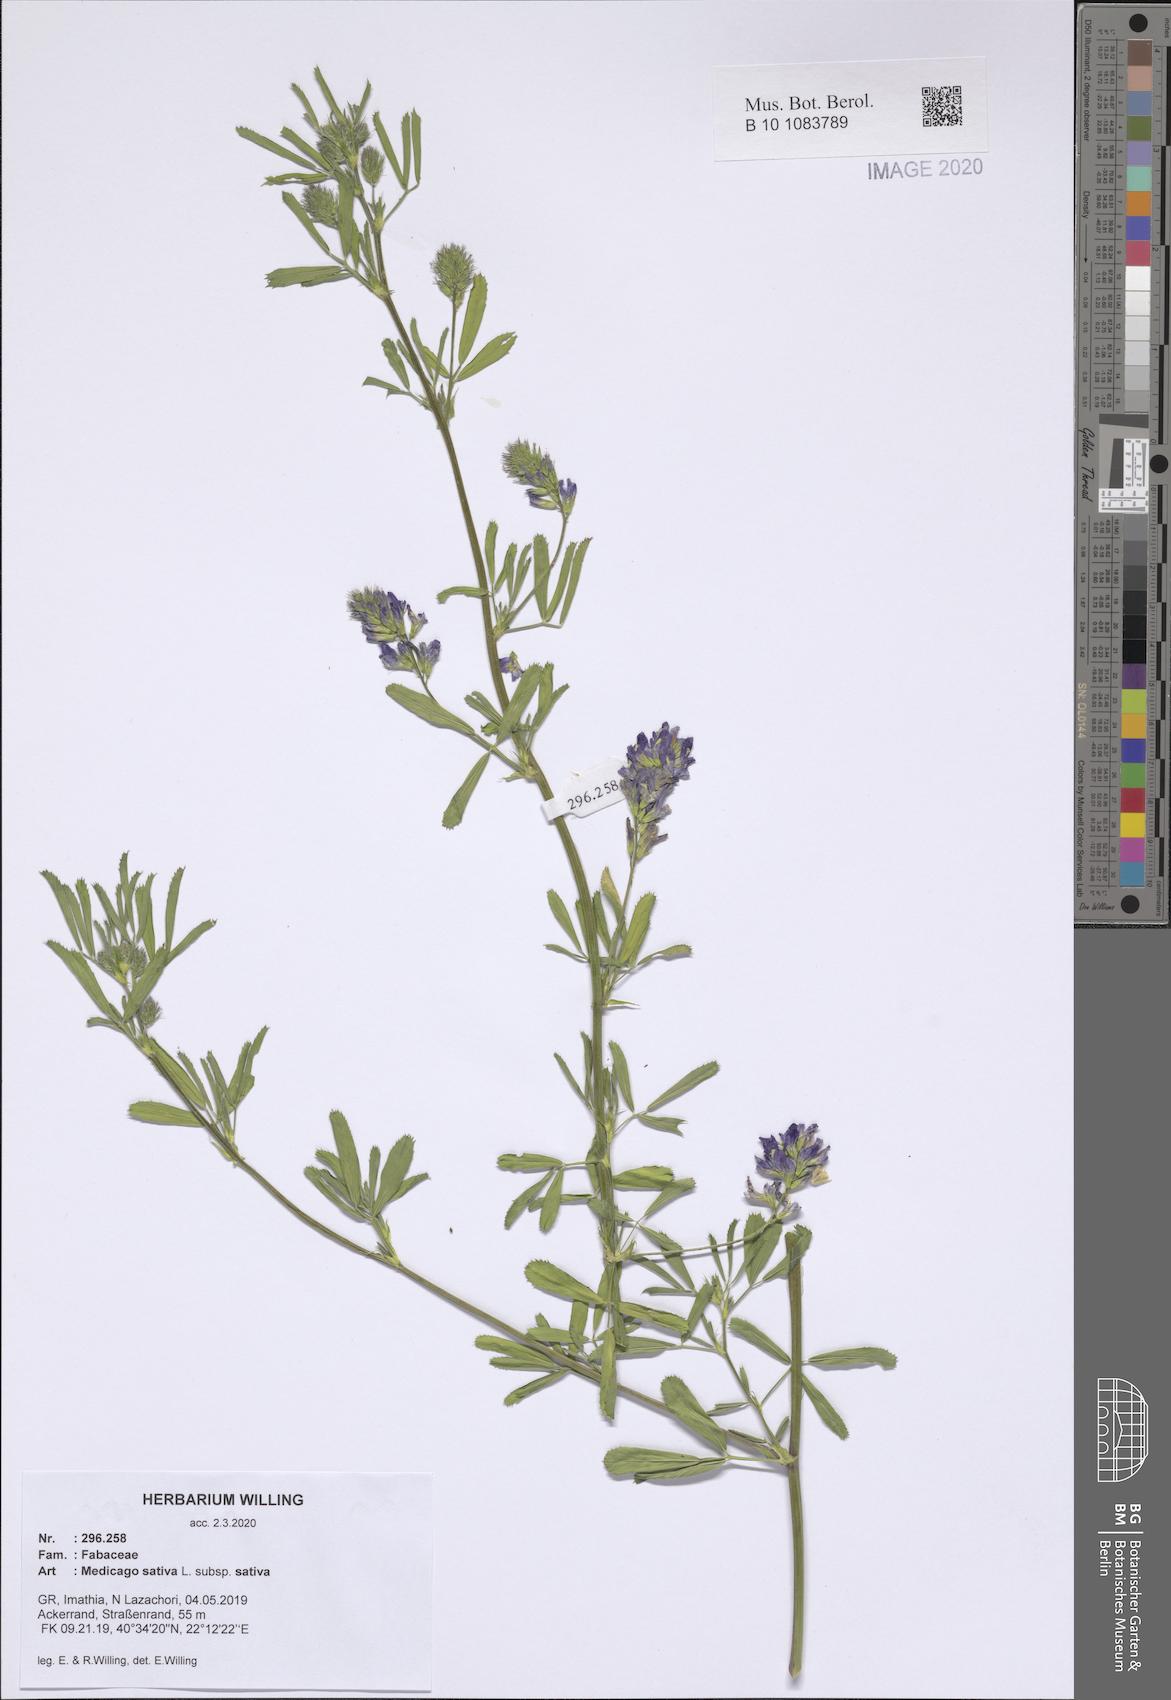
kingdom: Plantae
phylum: Tracheophyta
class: Magnoliopsida
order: Fabales
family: Fabaceae
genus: Medicago
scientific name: Medicago sativa
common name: Alfalfa
